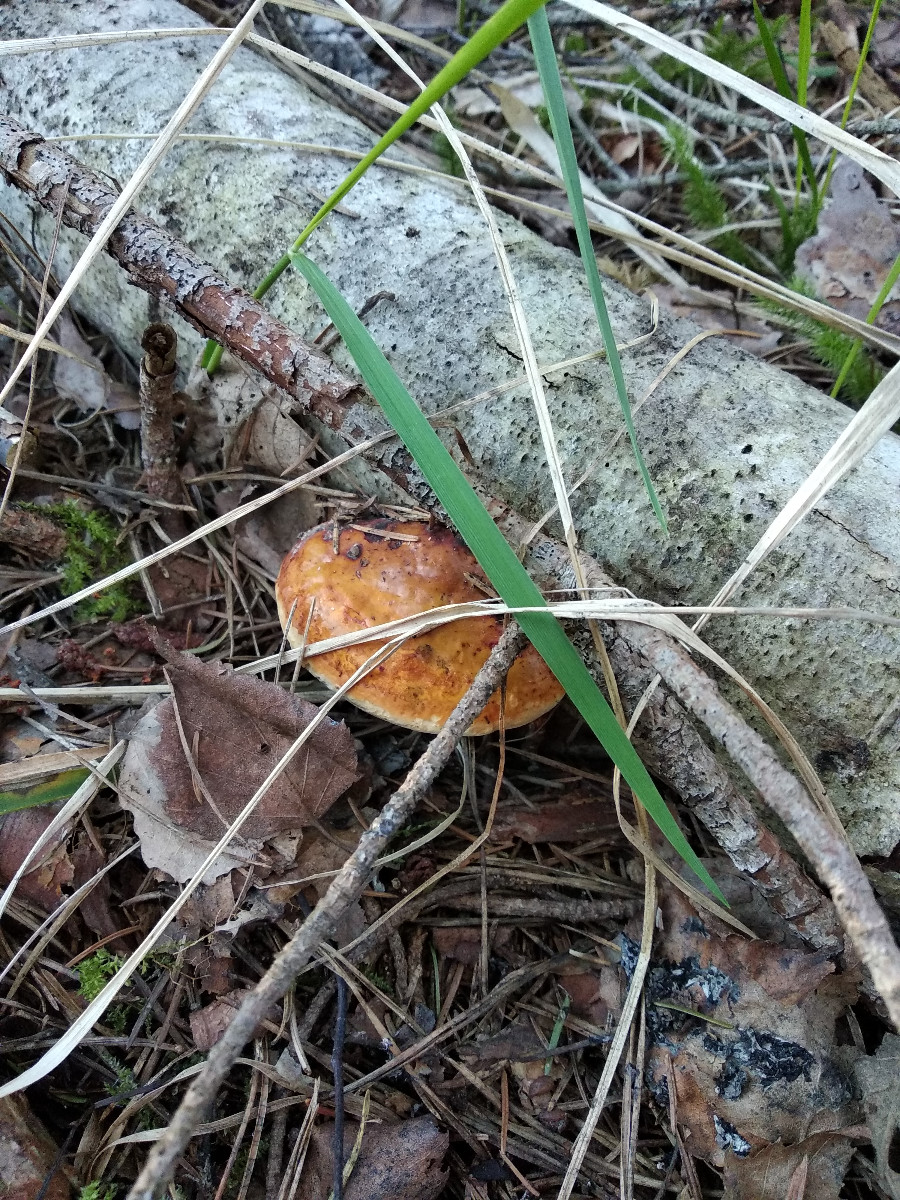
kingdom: Fungi
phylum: Basidiomycota
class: Agaricomycetes
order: Polyporales
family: Fomitopsidaceae
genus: Fomitopsis
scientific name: Fomitopsis pinicola
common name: randbæltet hovporesvamp
